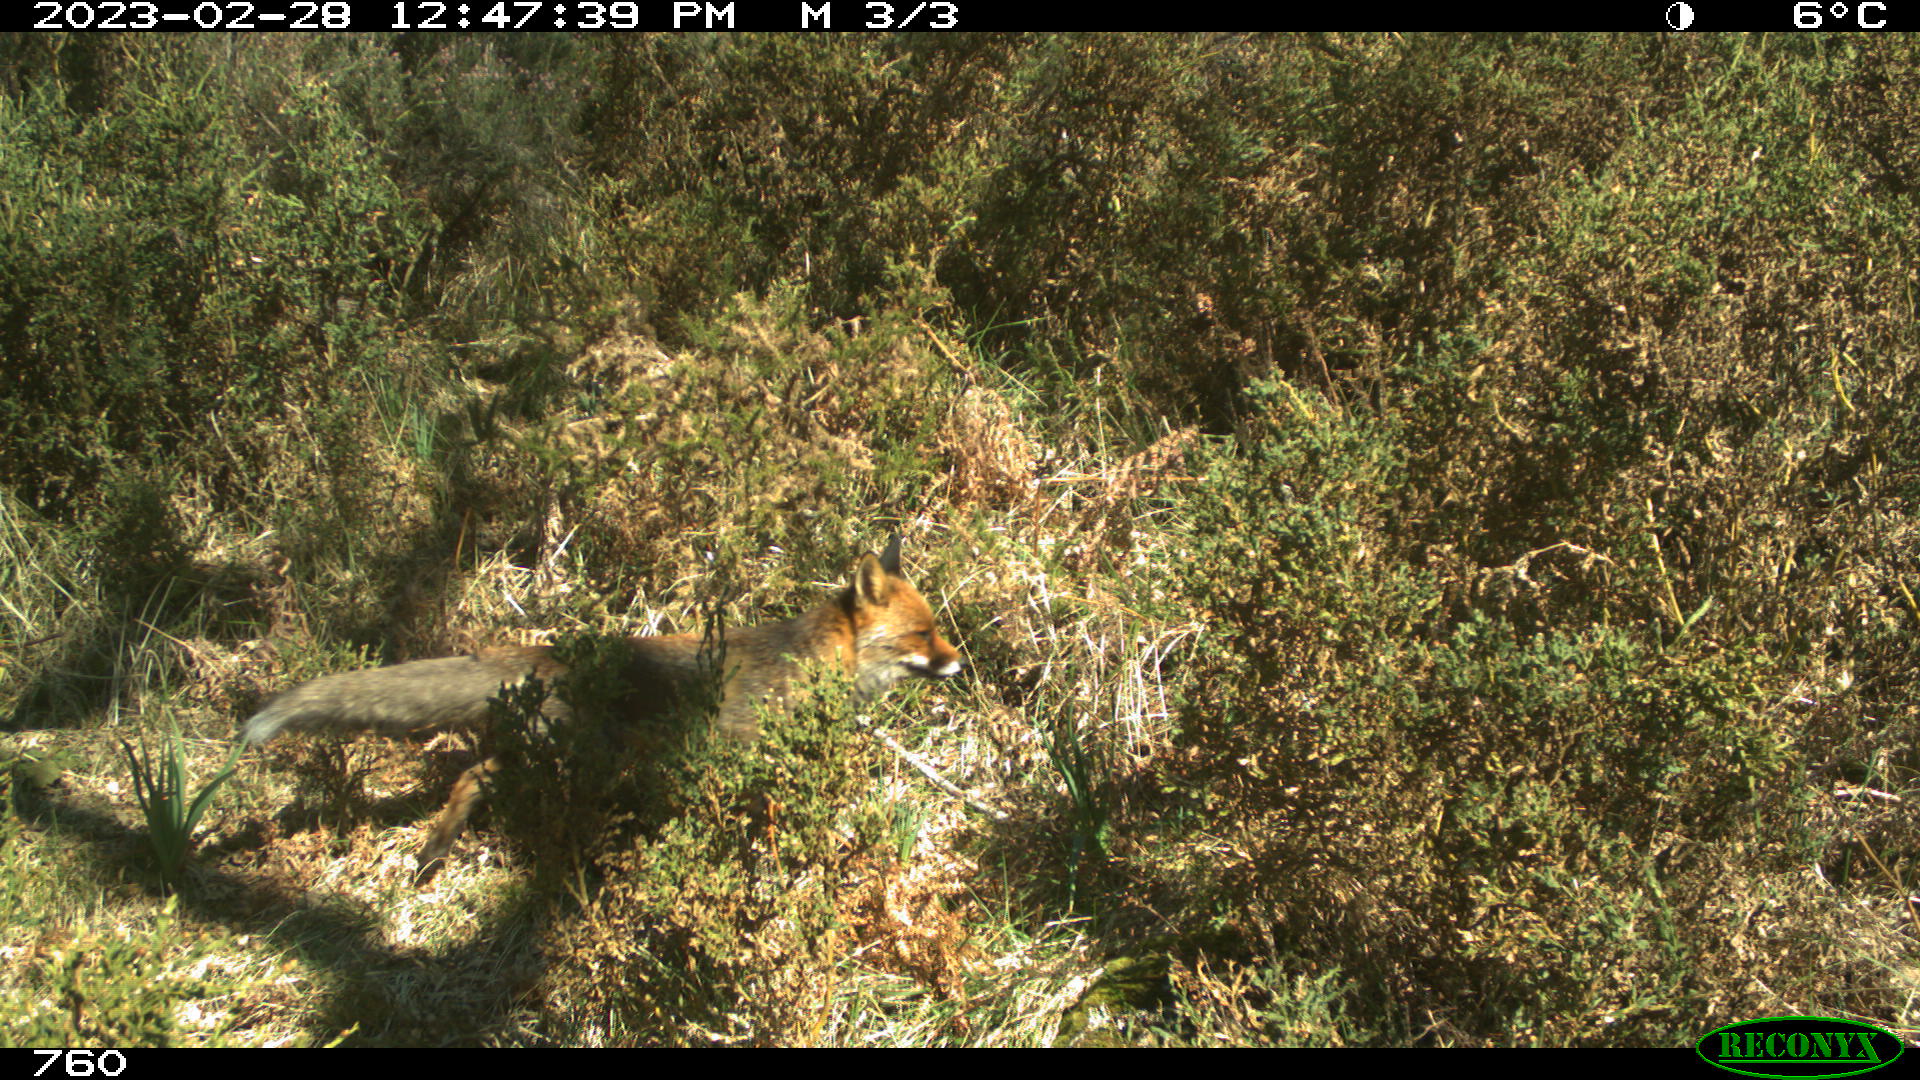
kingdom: Animalia
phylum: Chordata
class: Mammalia
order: Carnivora
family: Canidae
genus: Vulpes
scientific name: Vulpes vulpes
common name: Red fox
